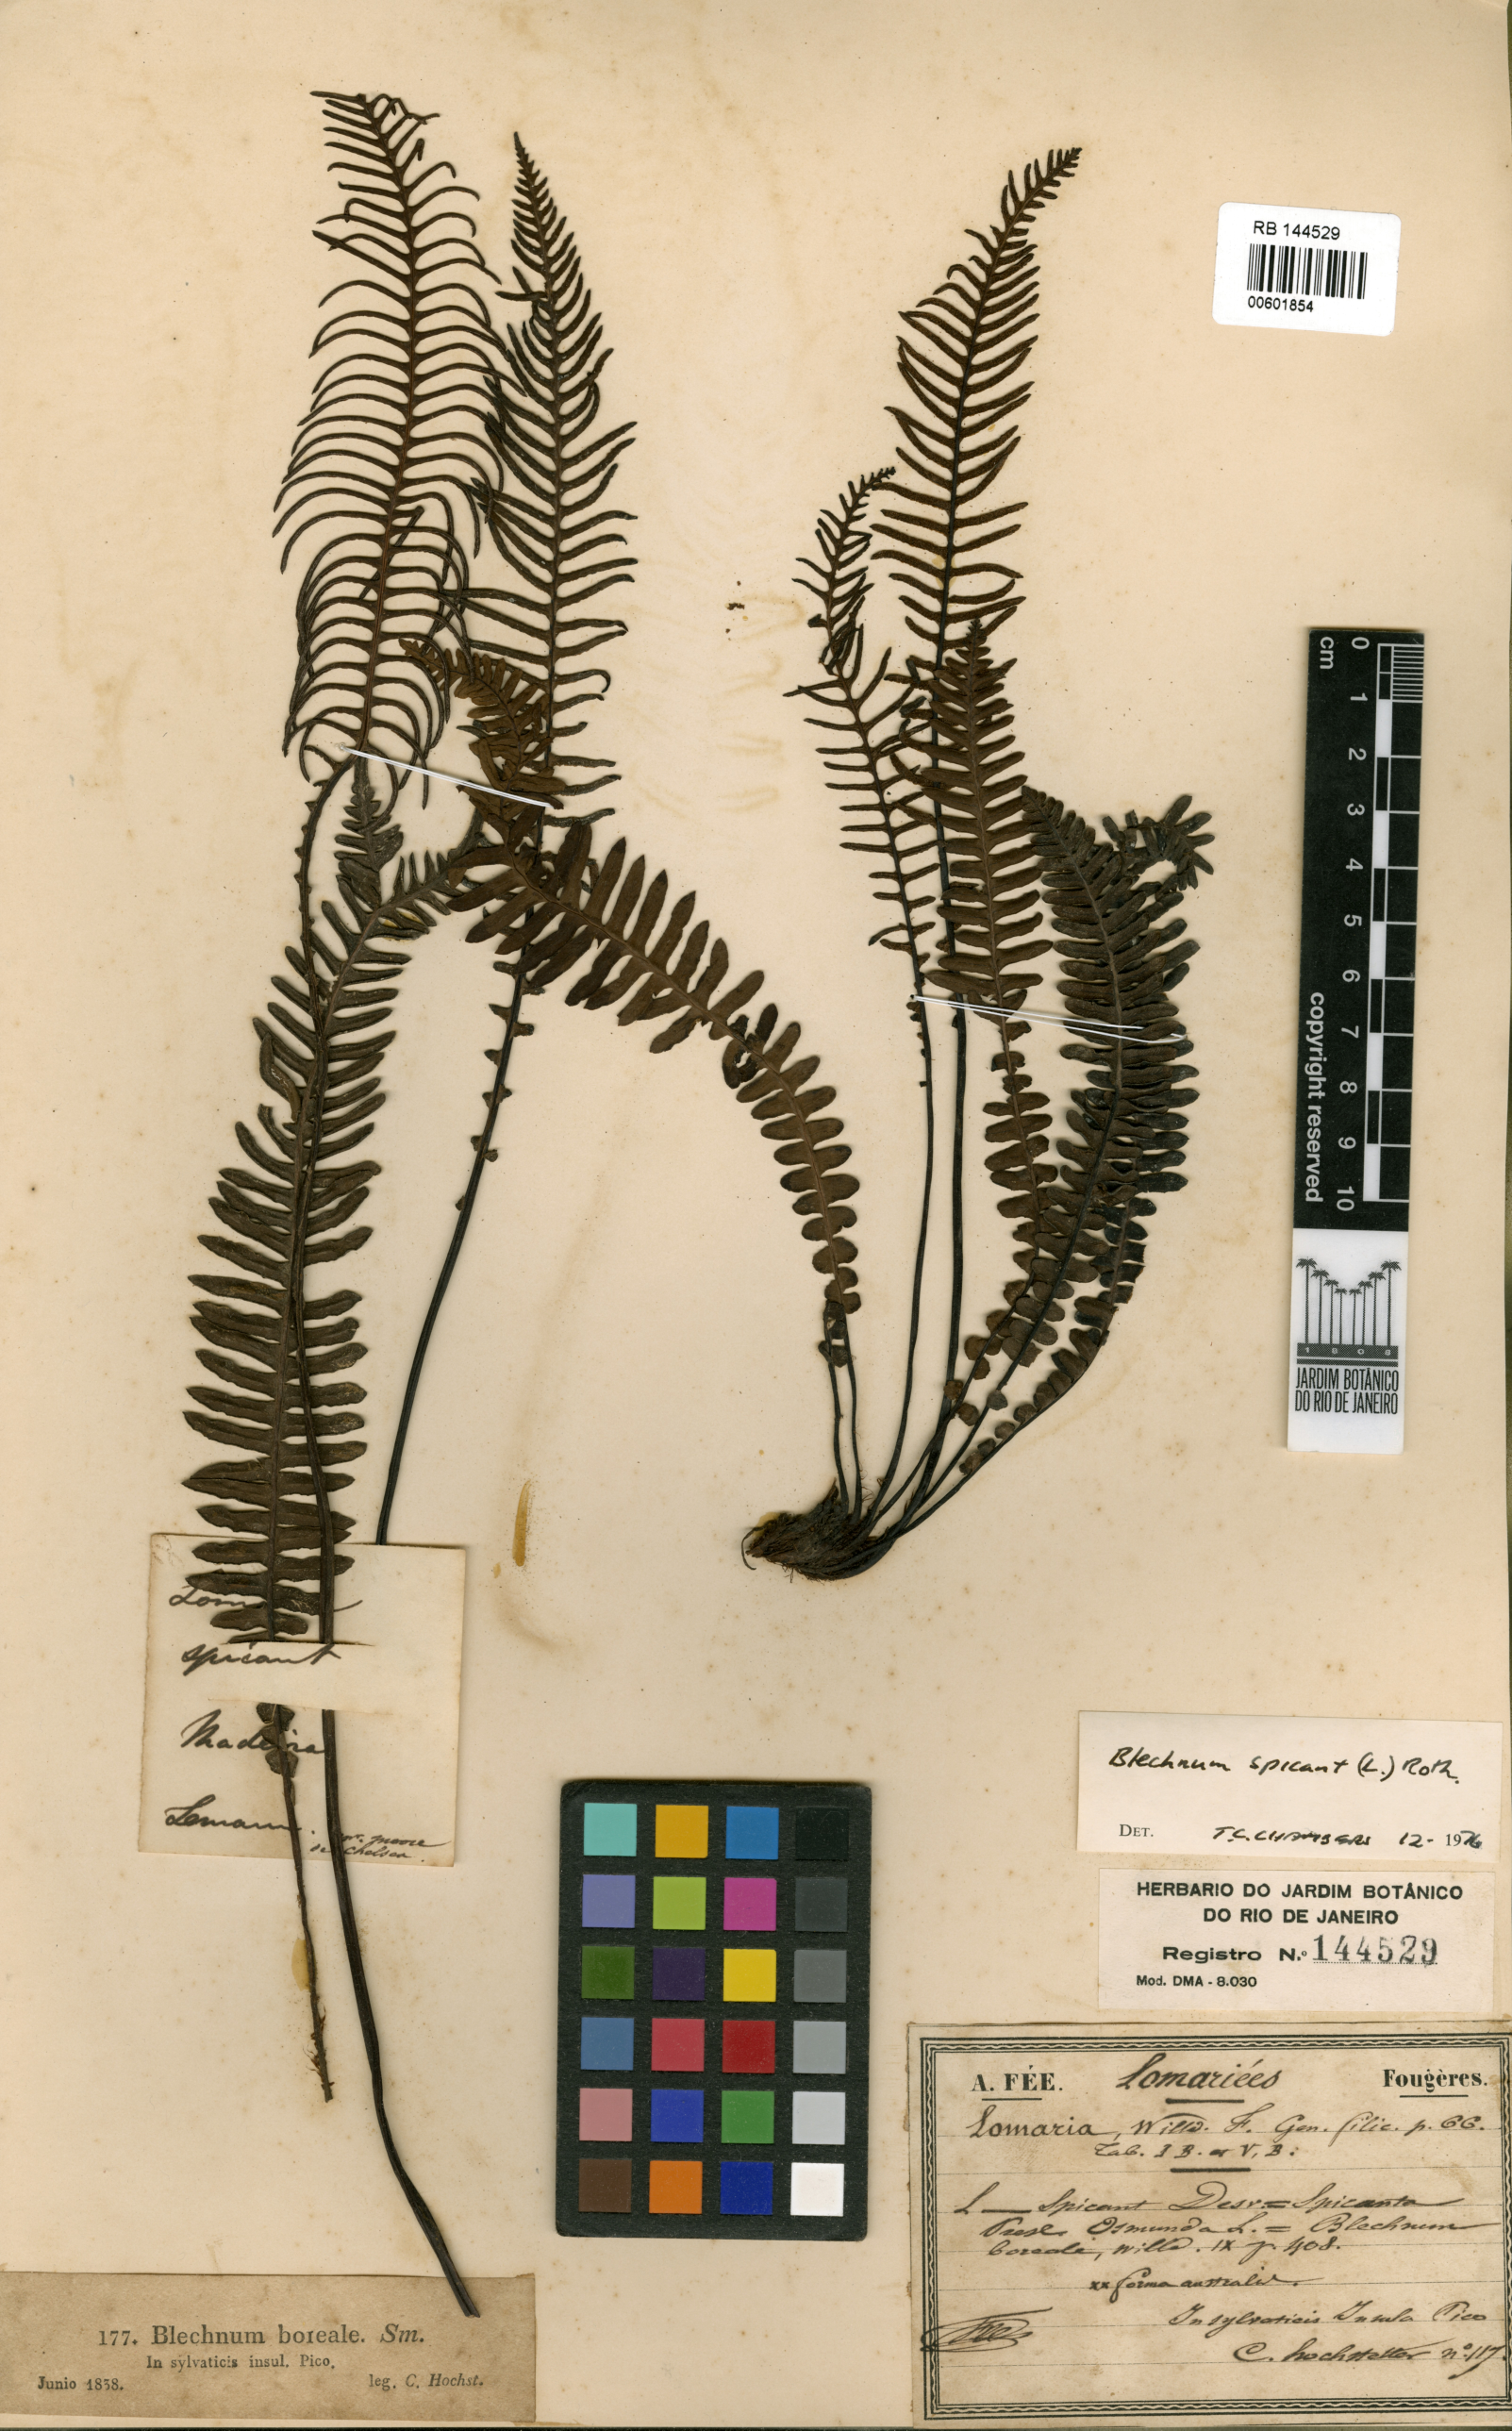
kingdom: Plantae
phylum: Tracheophyta
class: Polypodiopsida
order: Polypodiales
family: Blechnaceae
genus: Struthiopteris
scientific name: Struthiopteris spicant
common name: Deer fern
